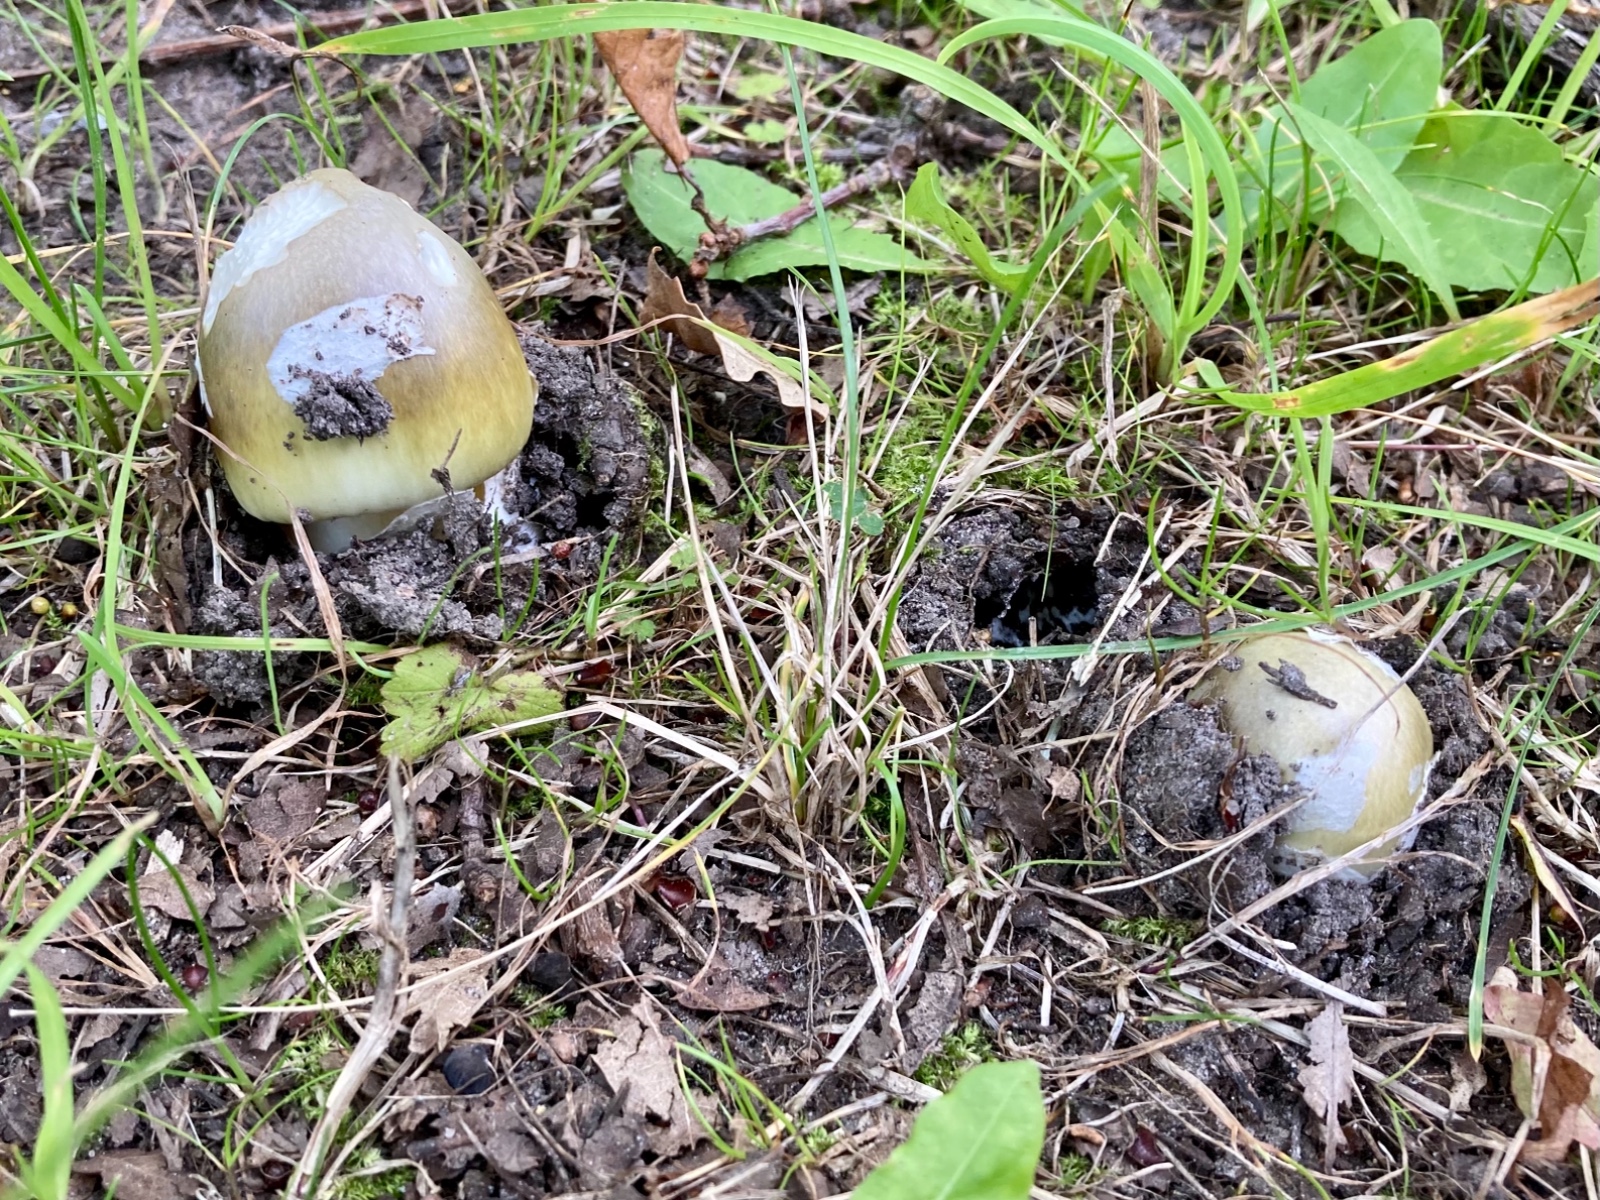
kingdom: Fungi
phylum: Basidiomycota
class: Agaricomycetes
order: Agaricales
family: Amanitaceae
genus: Amanita
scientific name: Amanita phalloides
